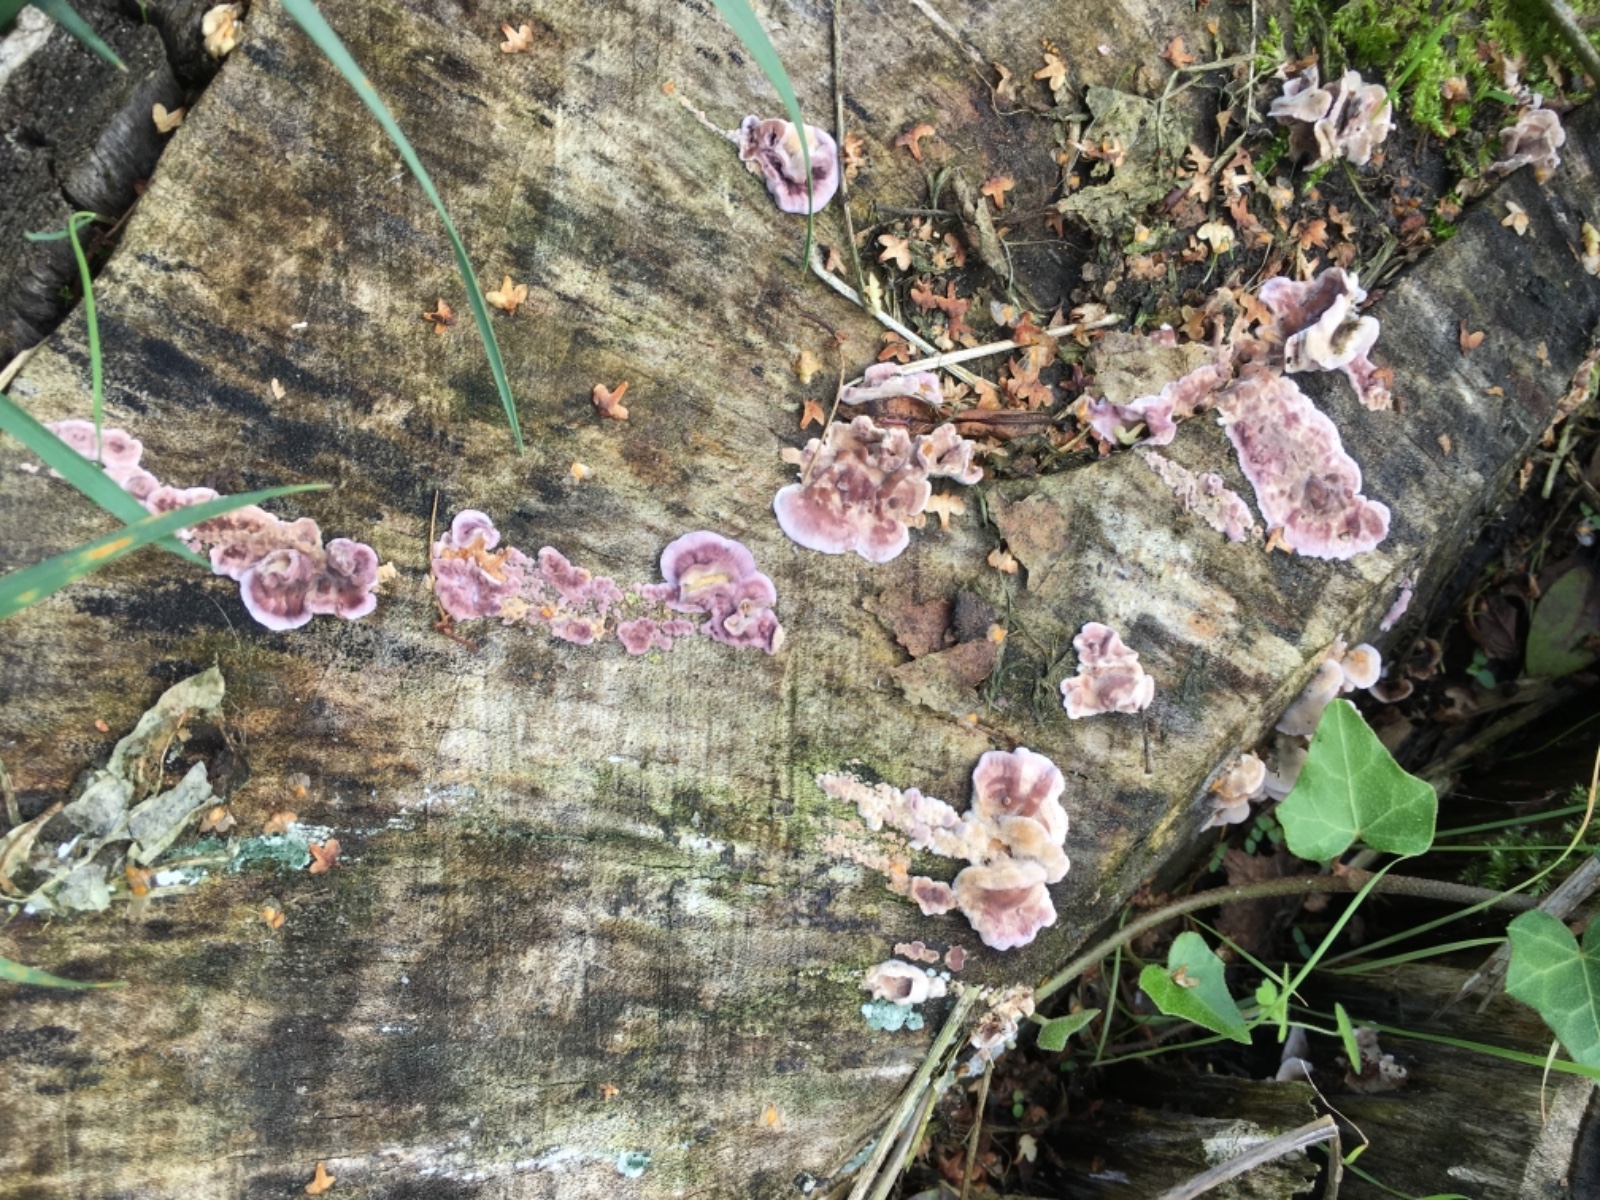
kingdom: Fungi
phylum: Basidiomycota
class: Agaricomycetes
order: Agaricales
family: Cyphellaceae
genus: Chondrostereum
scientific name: Chondrostereum purpureum
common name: purpurlædersvamp
